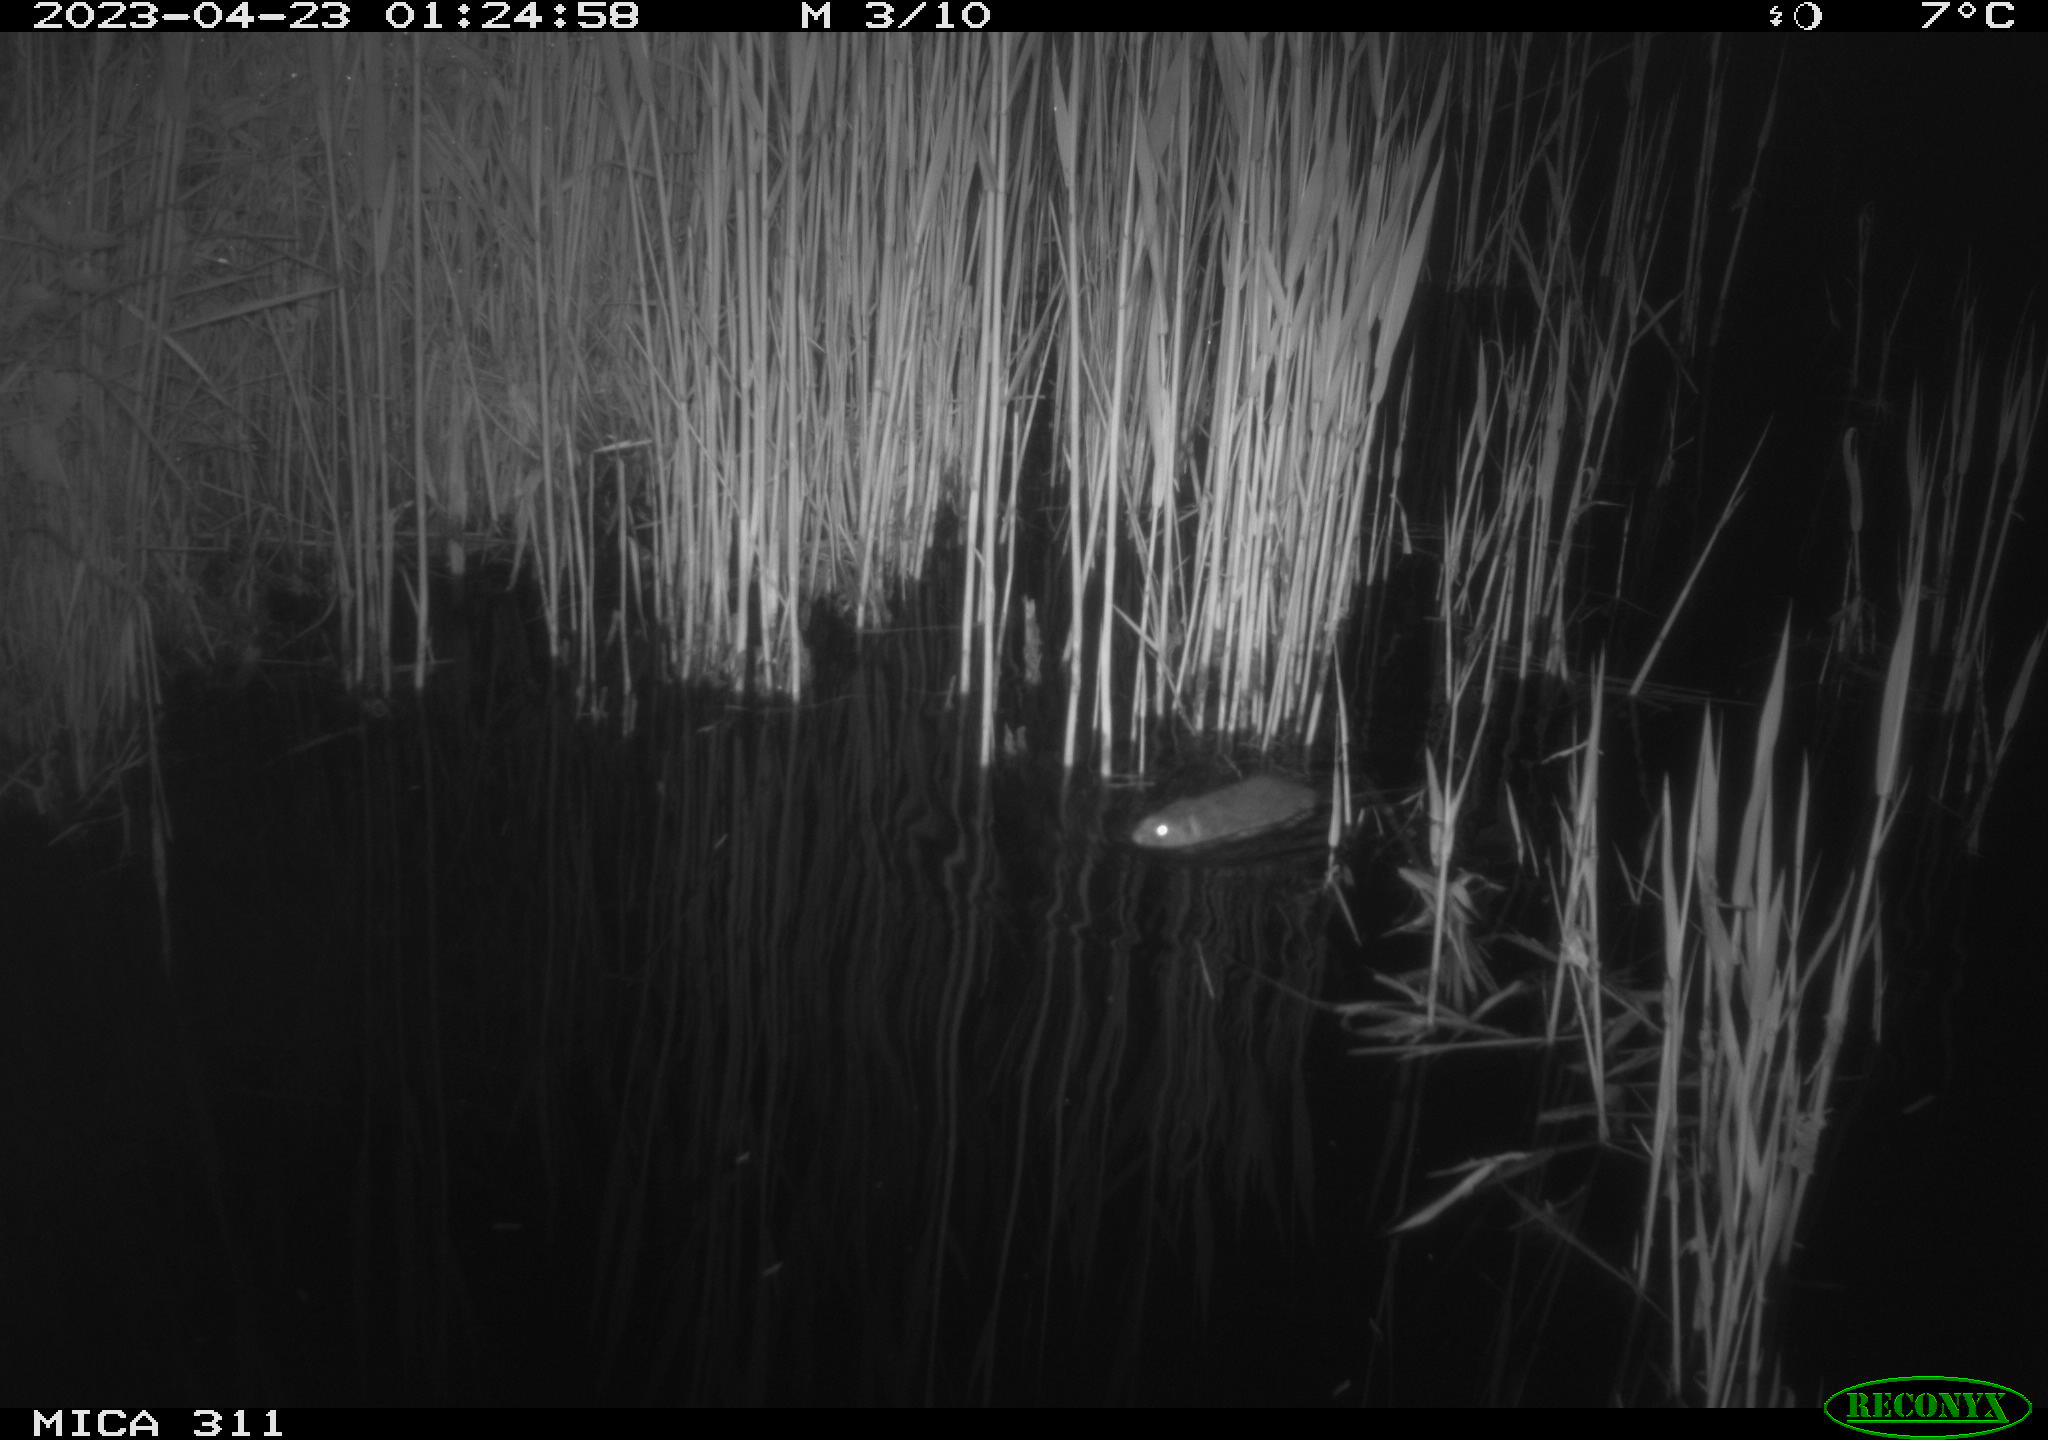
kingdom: Animalia
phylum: Chordata
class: Mammalia
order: Rodentia
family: Cricetidae
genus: Arvicola
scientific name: Arvicola amphibius
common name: European water vole
